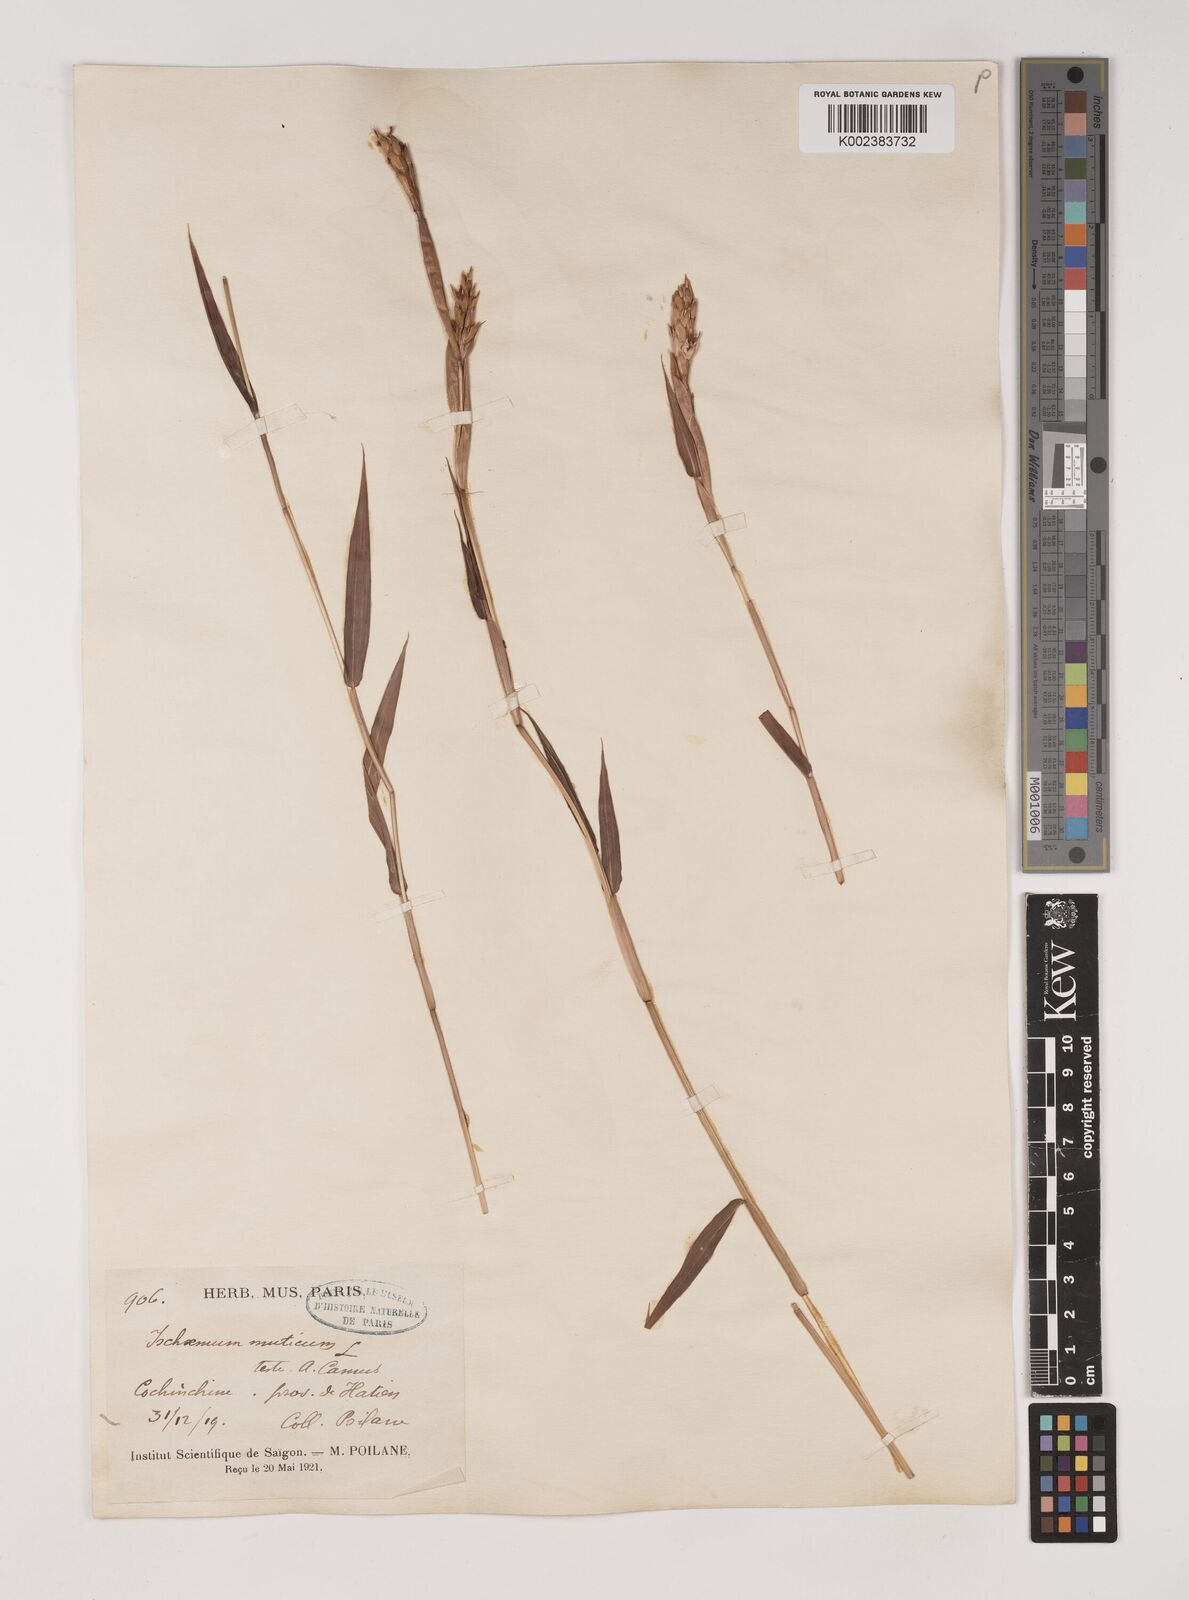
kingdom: Plantae
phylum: Tracheophyta
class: Liliopsida
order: Poales
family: Poaceae
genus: Ischaemum
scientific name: Ischaemum muticum
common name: Drought grass
